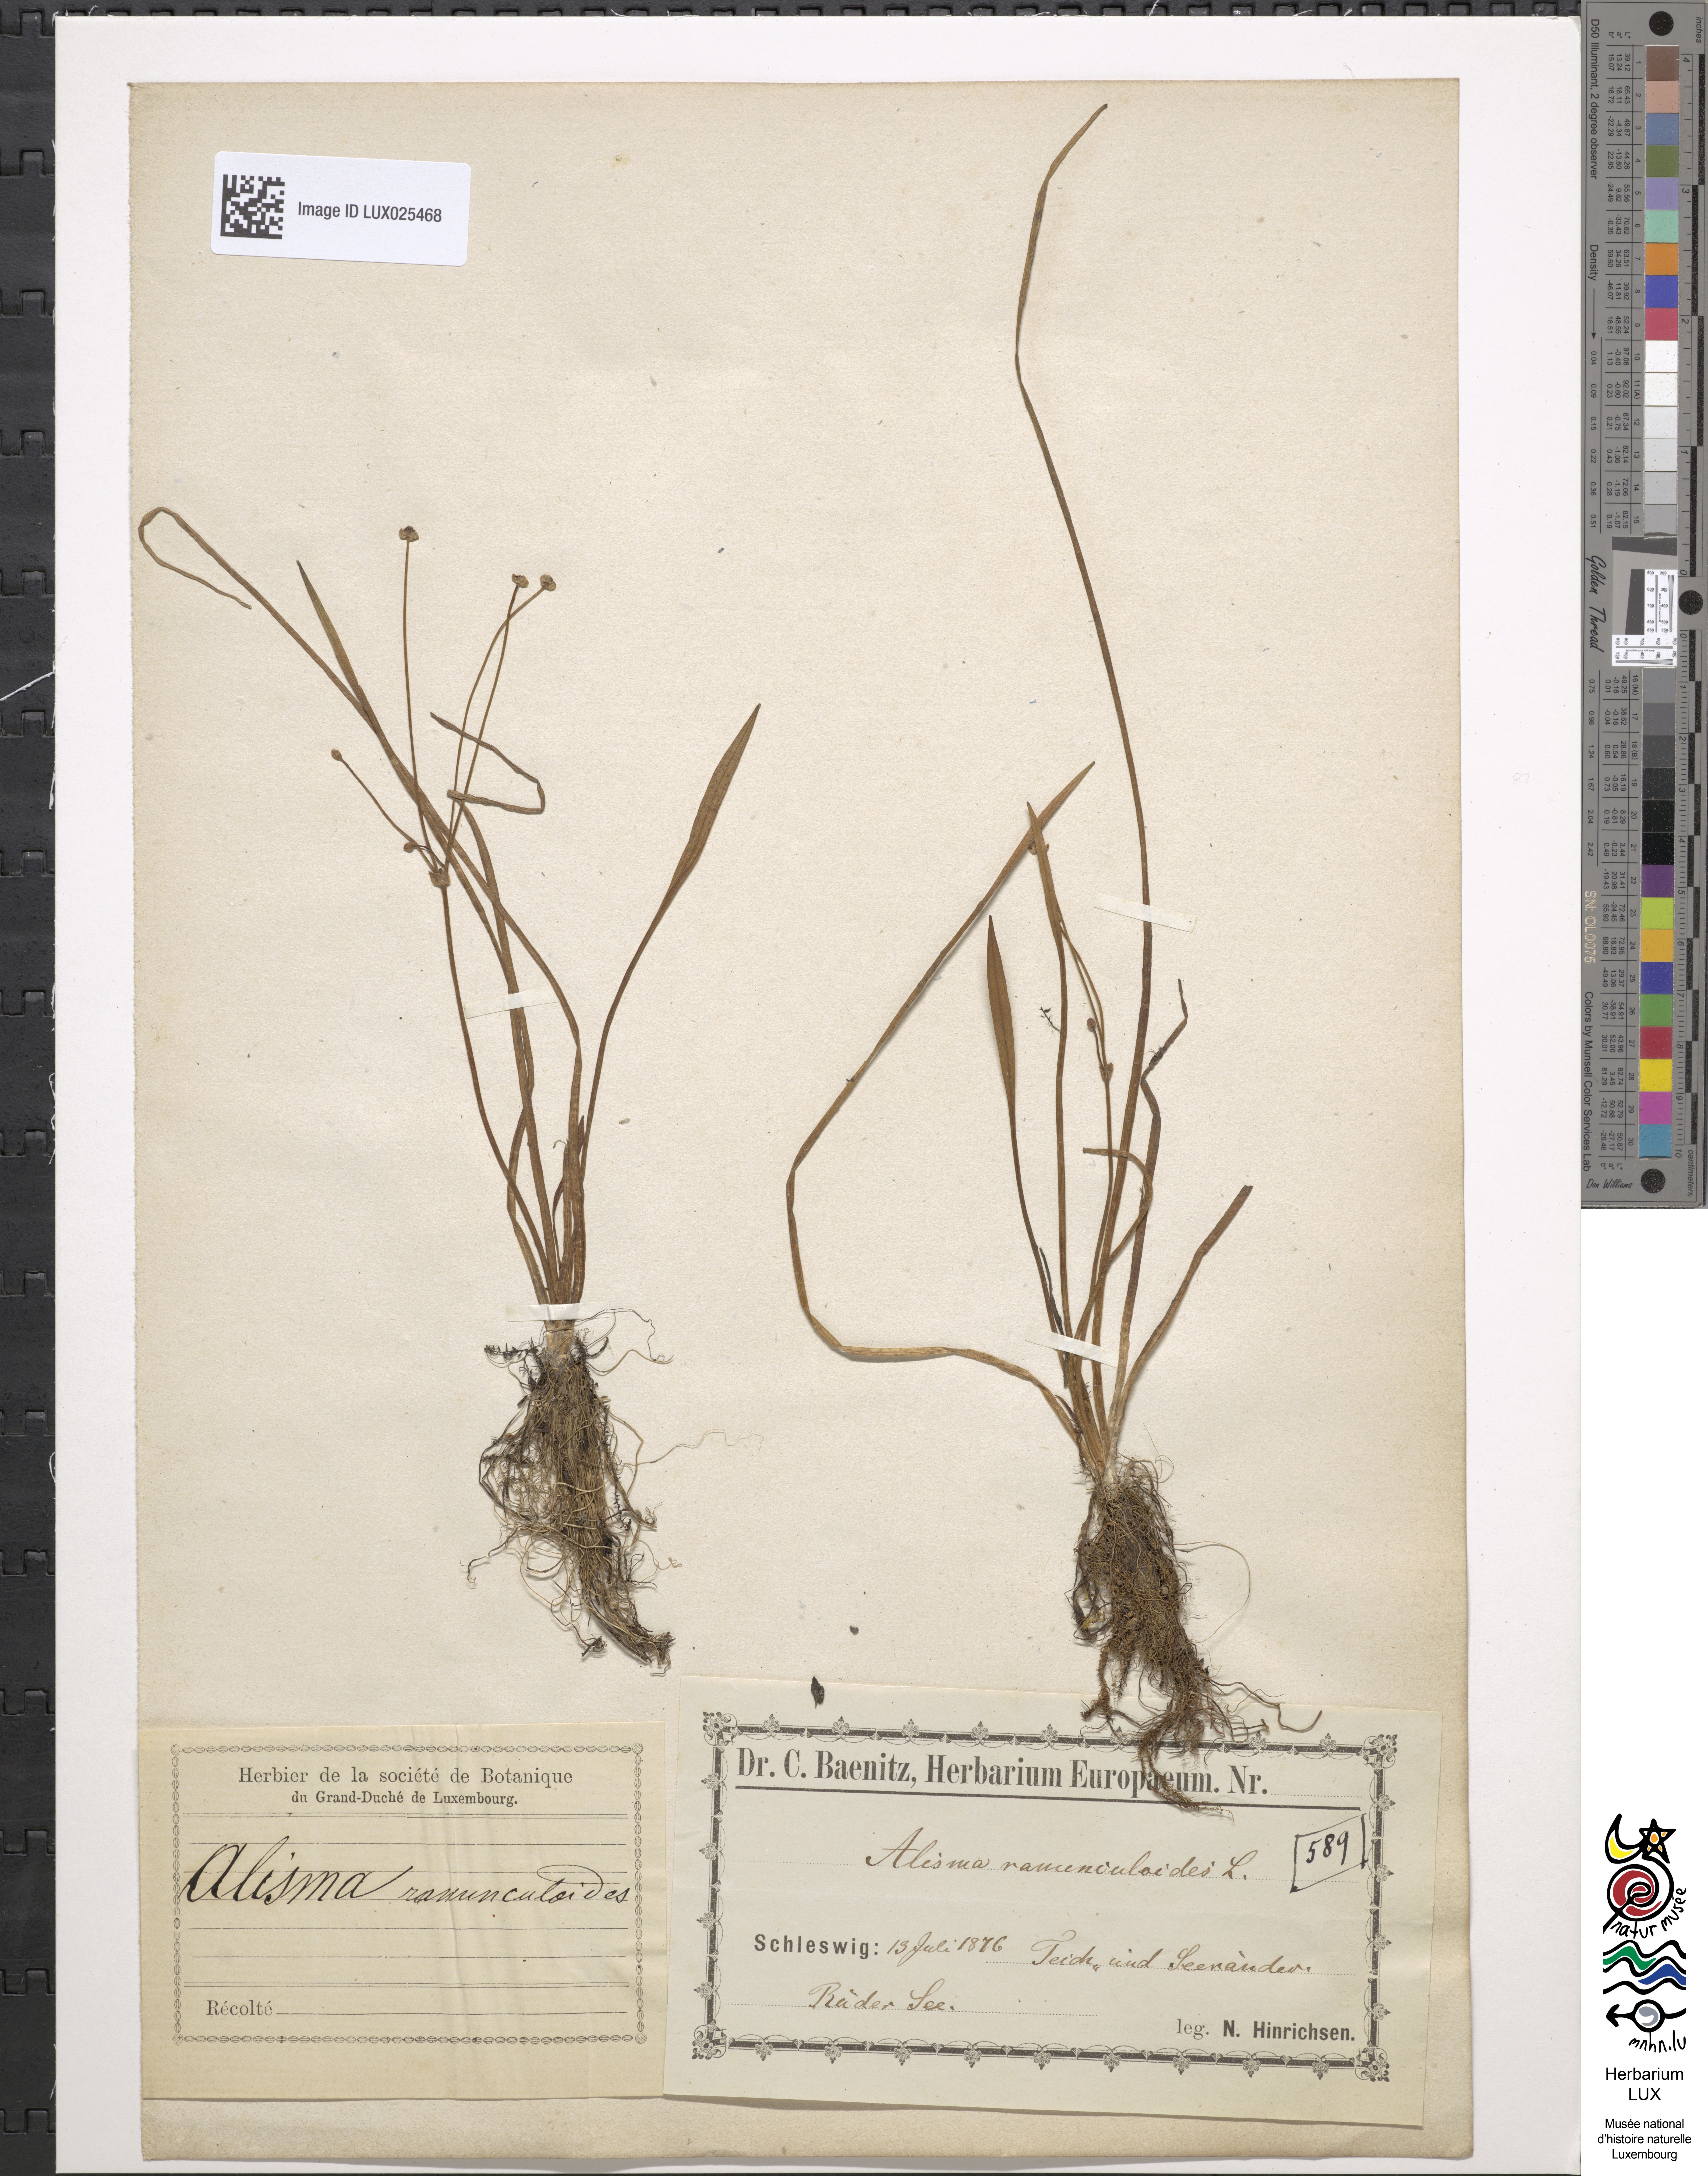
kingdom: Plantae
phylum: Tracheophyta
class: Liliopsida
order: Alismatales
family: Alismataceae
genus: Baldellia
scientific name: Baldellia ranunculoides
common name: Lesser water-plantain
